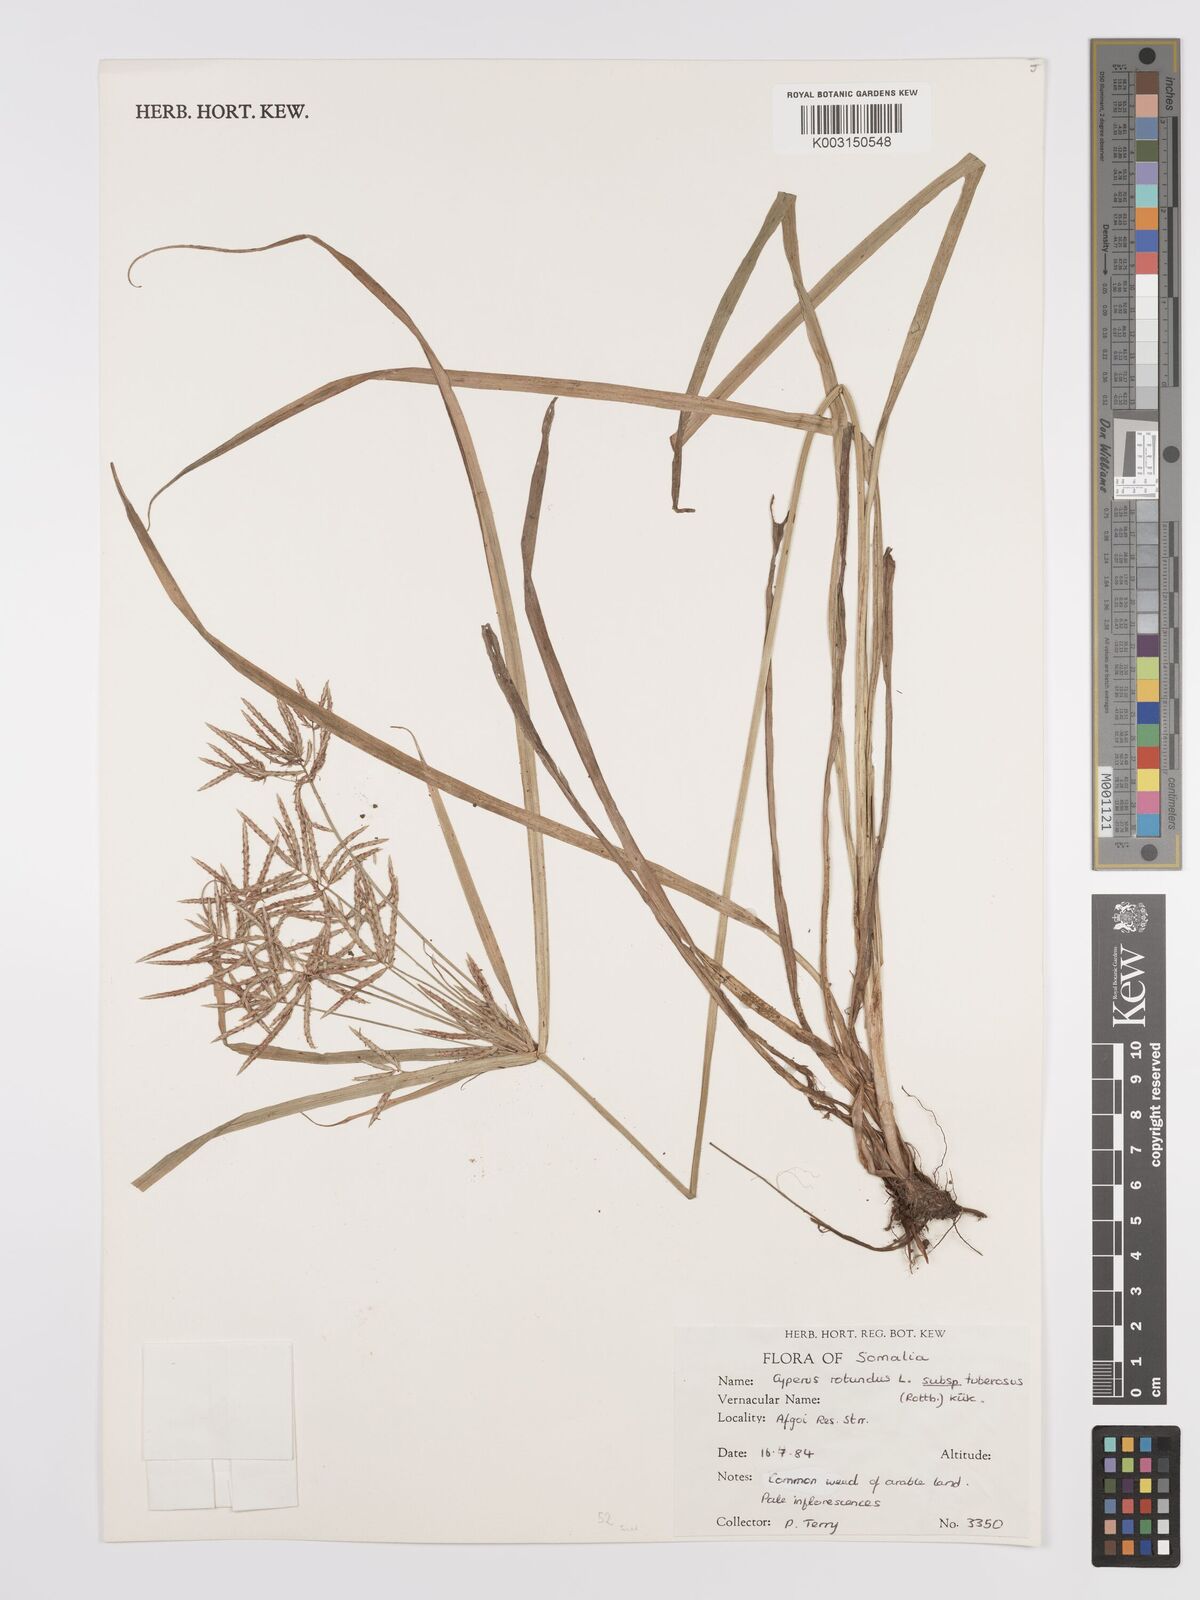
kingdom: Plantae
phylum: Tracheophyta
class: Liliopsida
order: Poales
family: Cyperaceae
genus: Cyperus
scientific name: Cyperus tuberosus
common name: Nut grass
